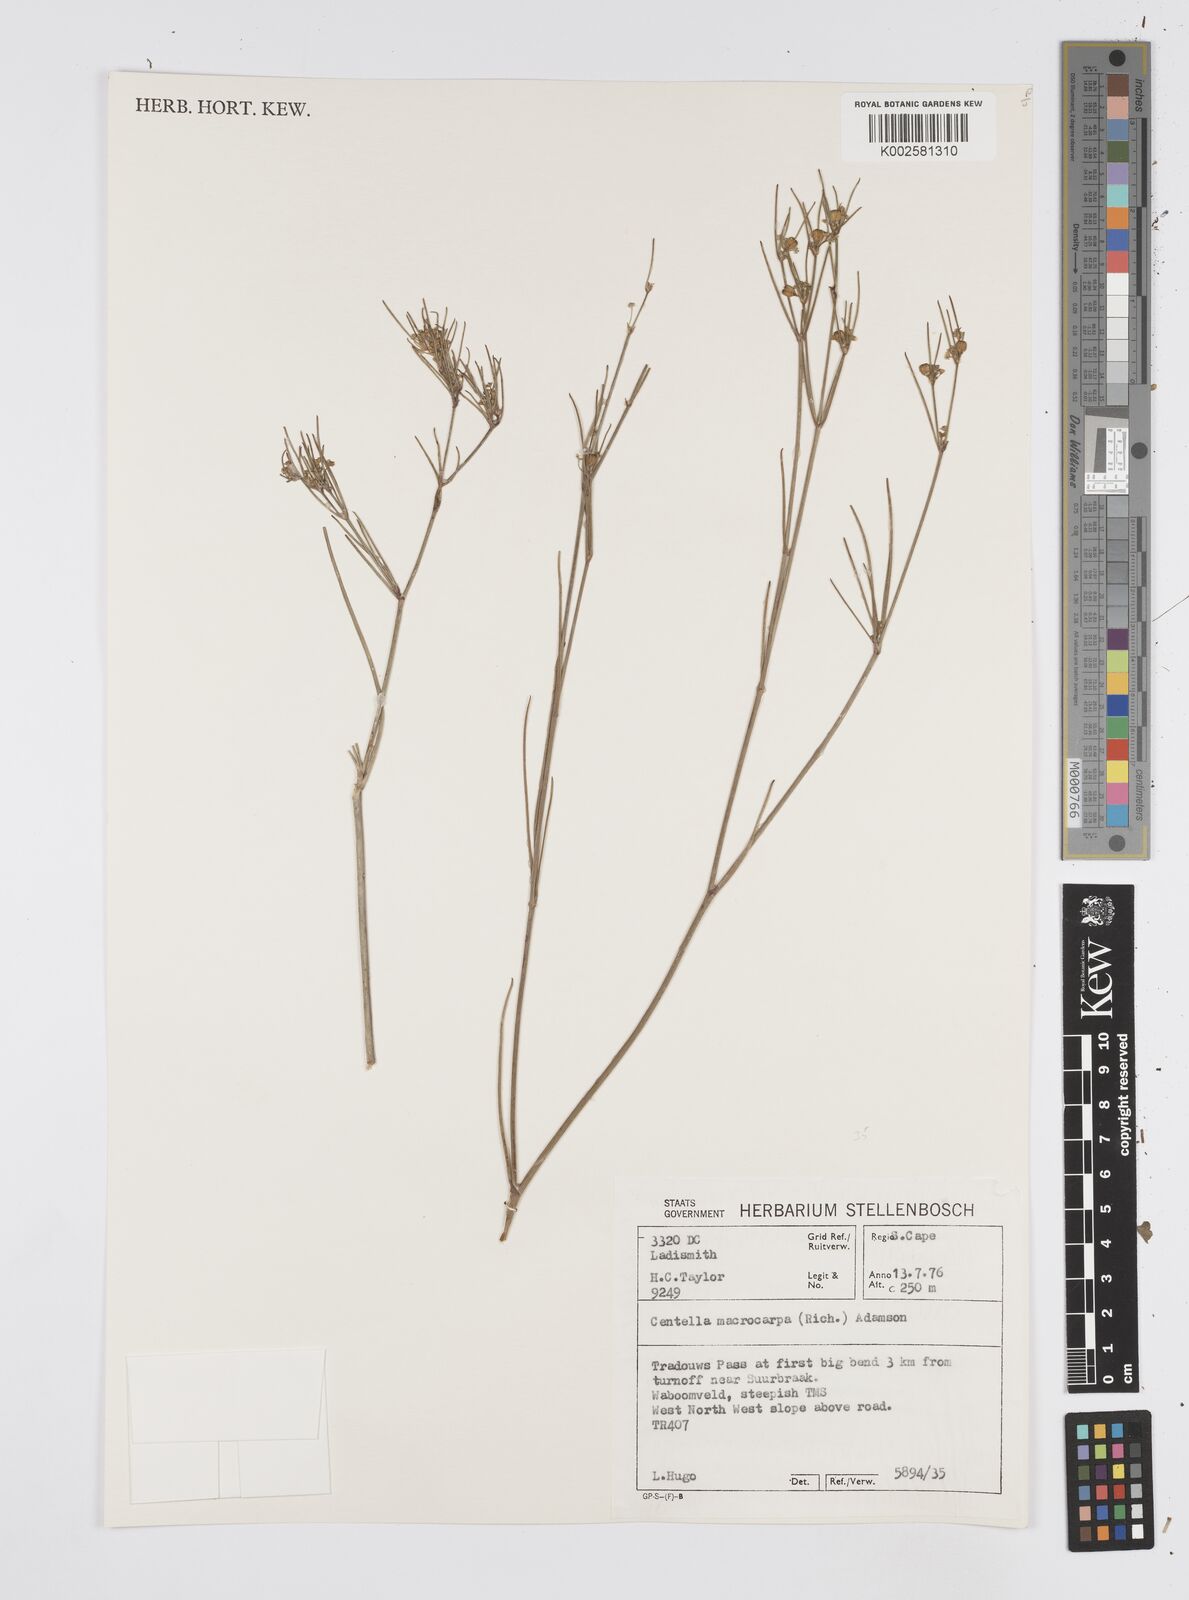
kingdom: Plantae
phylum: Tracheophyta
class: Magnoliopsida
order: Apiales
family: Apiaceae
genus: Centella
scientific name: Centella macrocarpa
